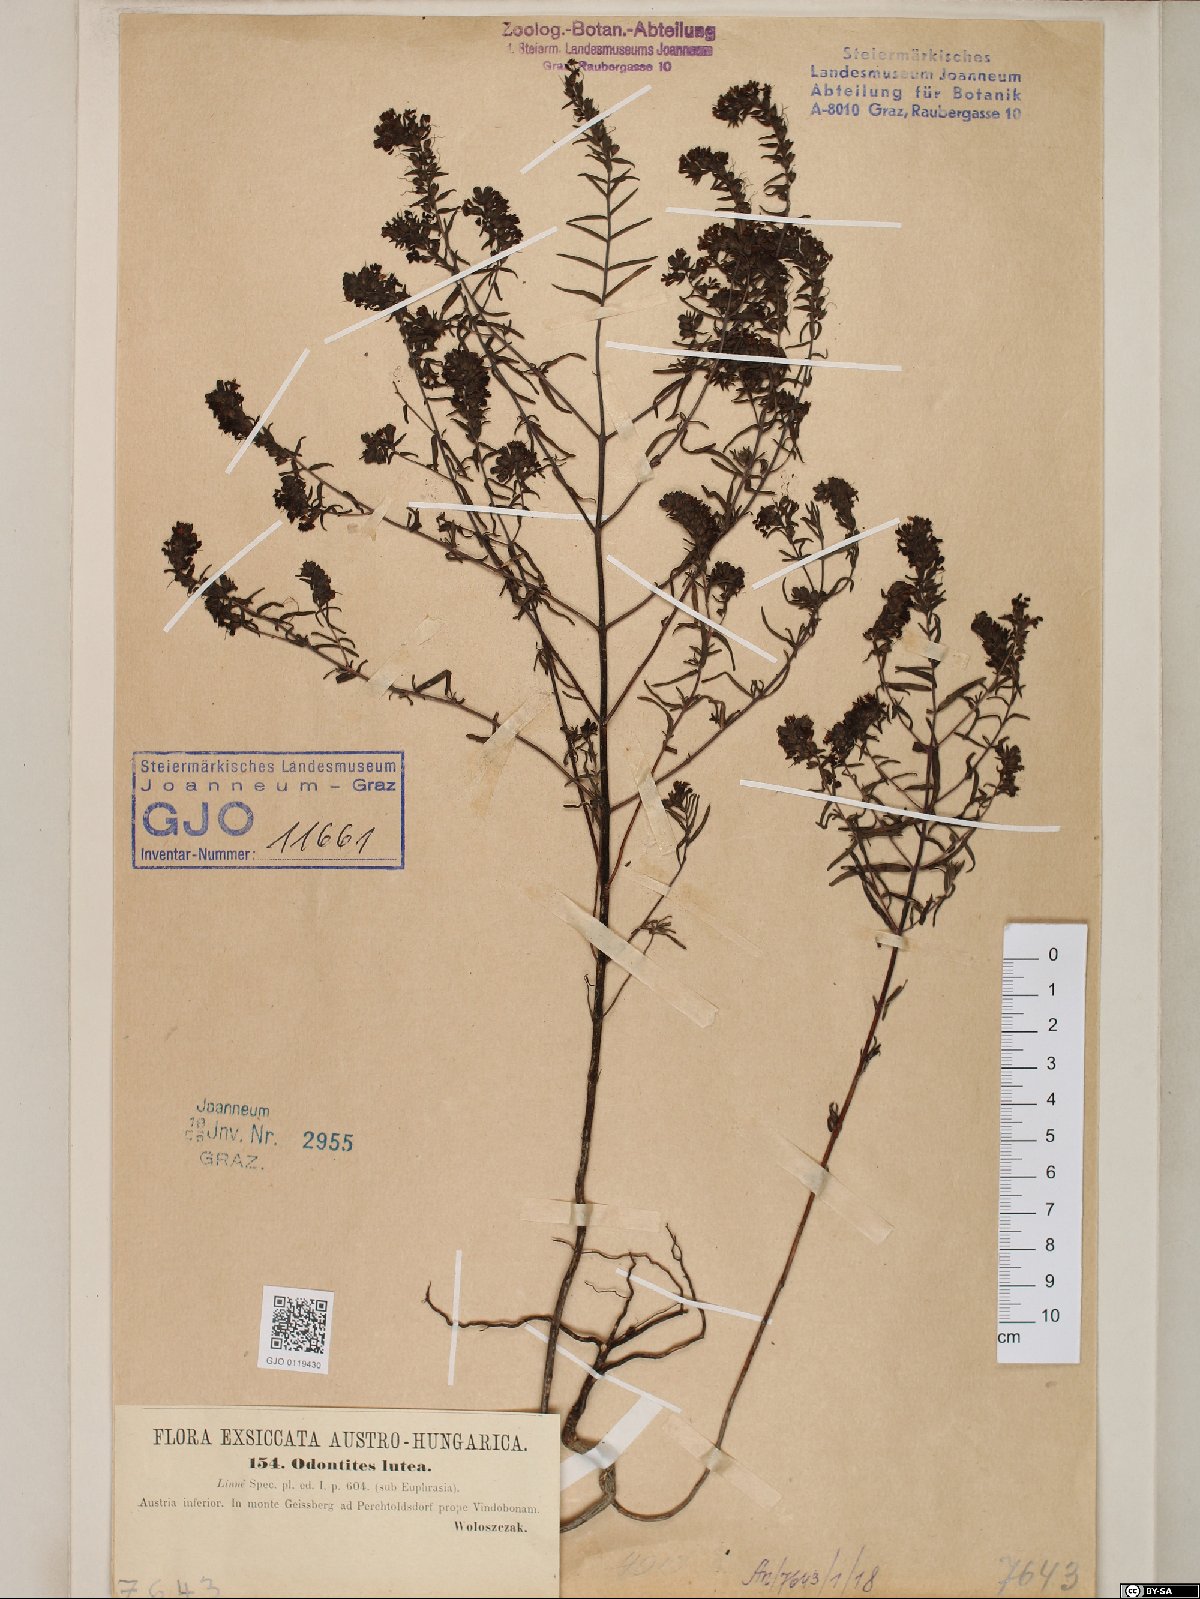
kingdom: Plantae
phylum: Tracheophyta
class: Magnoliopsida
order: Lamiales
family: Orobanchaceae
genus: Odontites
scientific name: Odontites luteus
